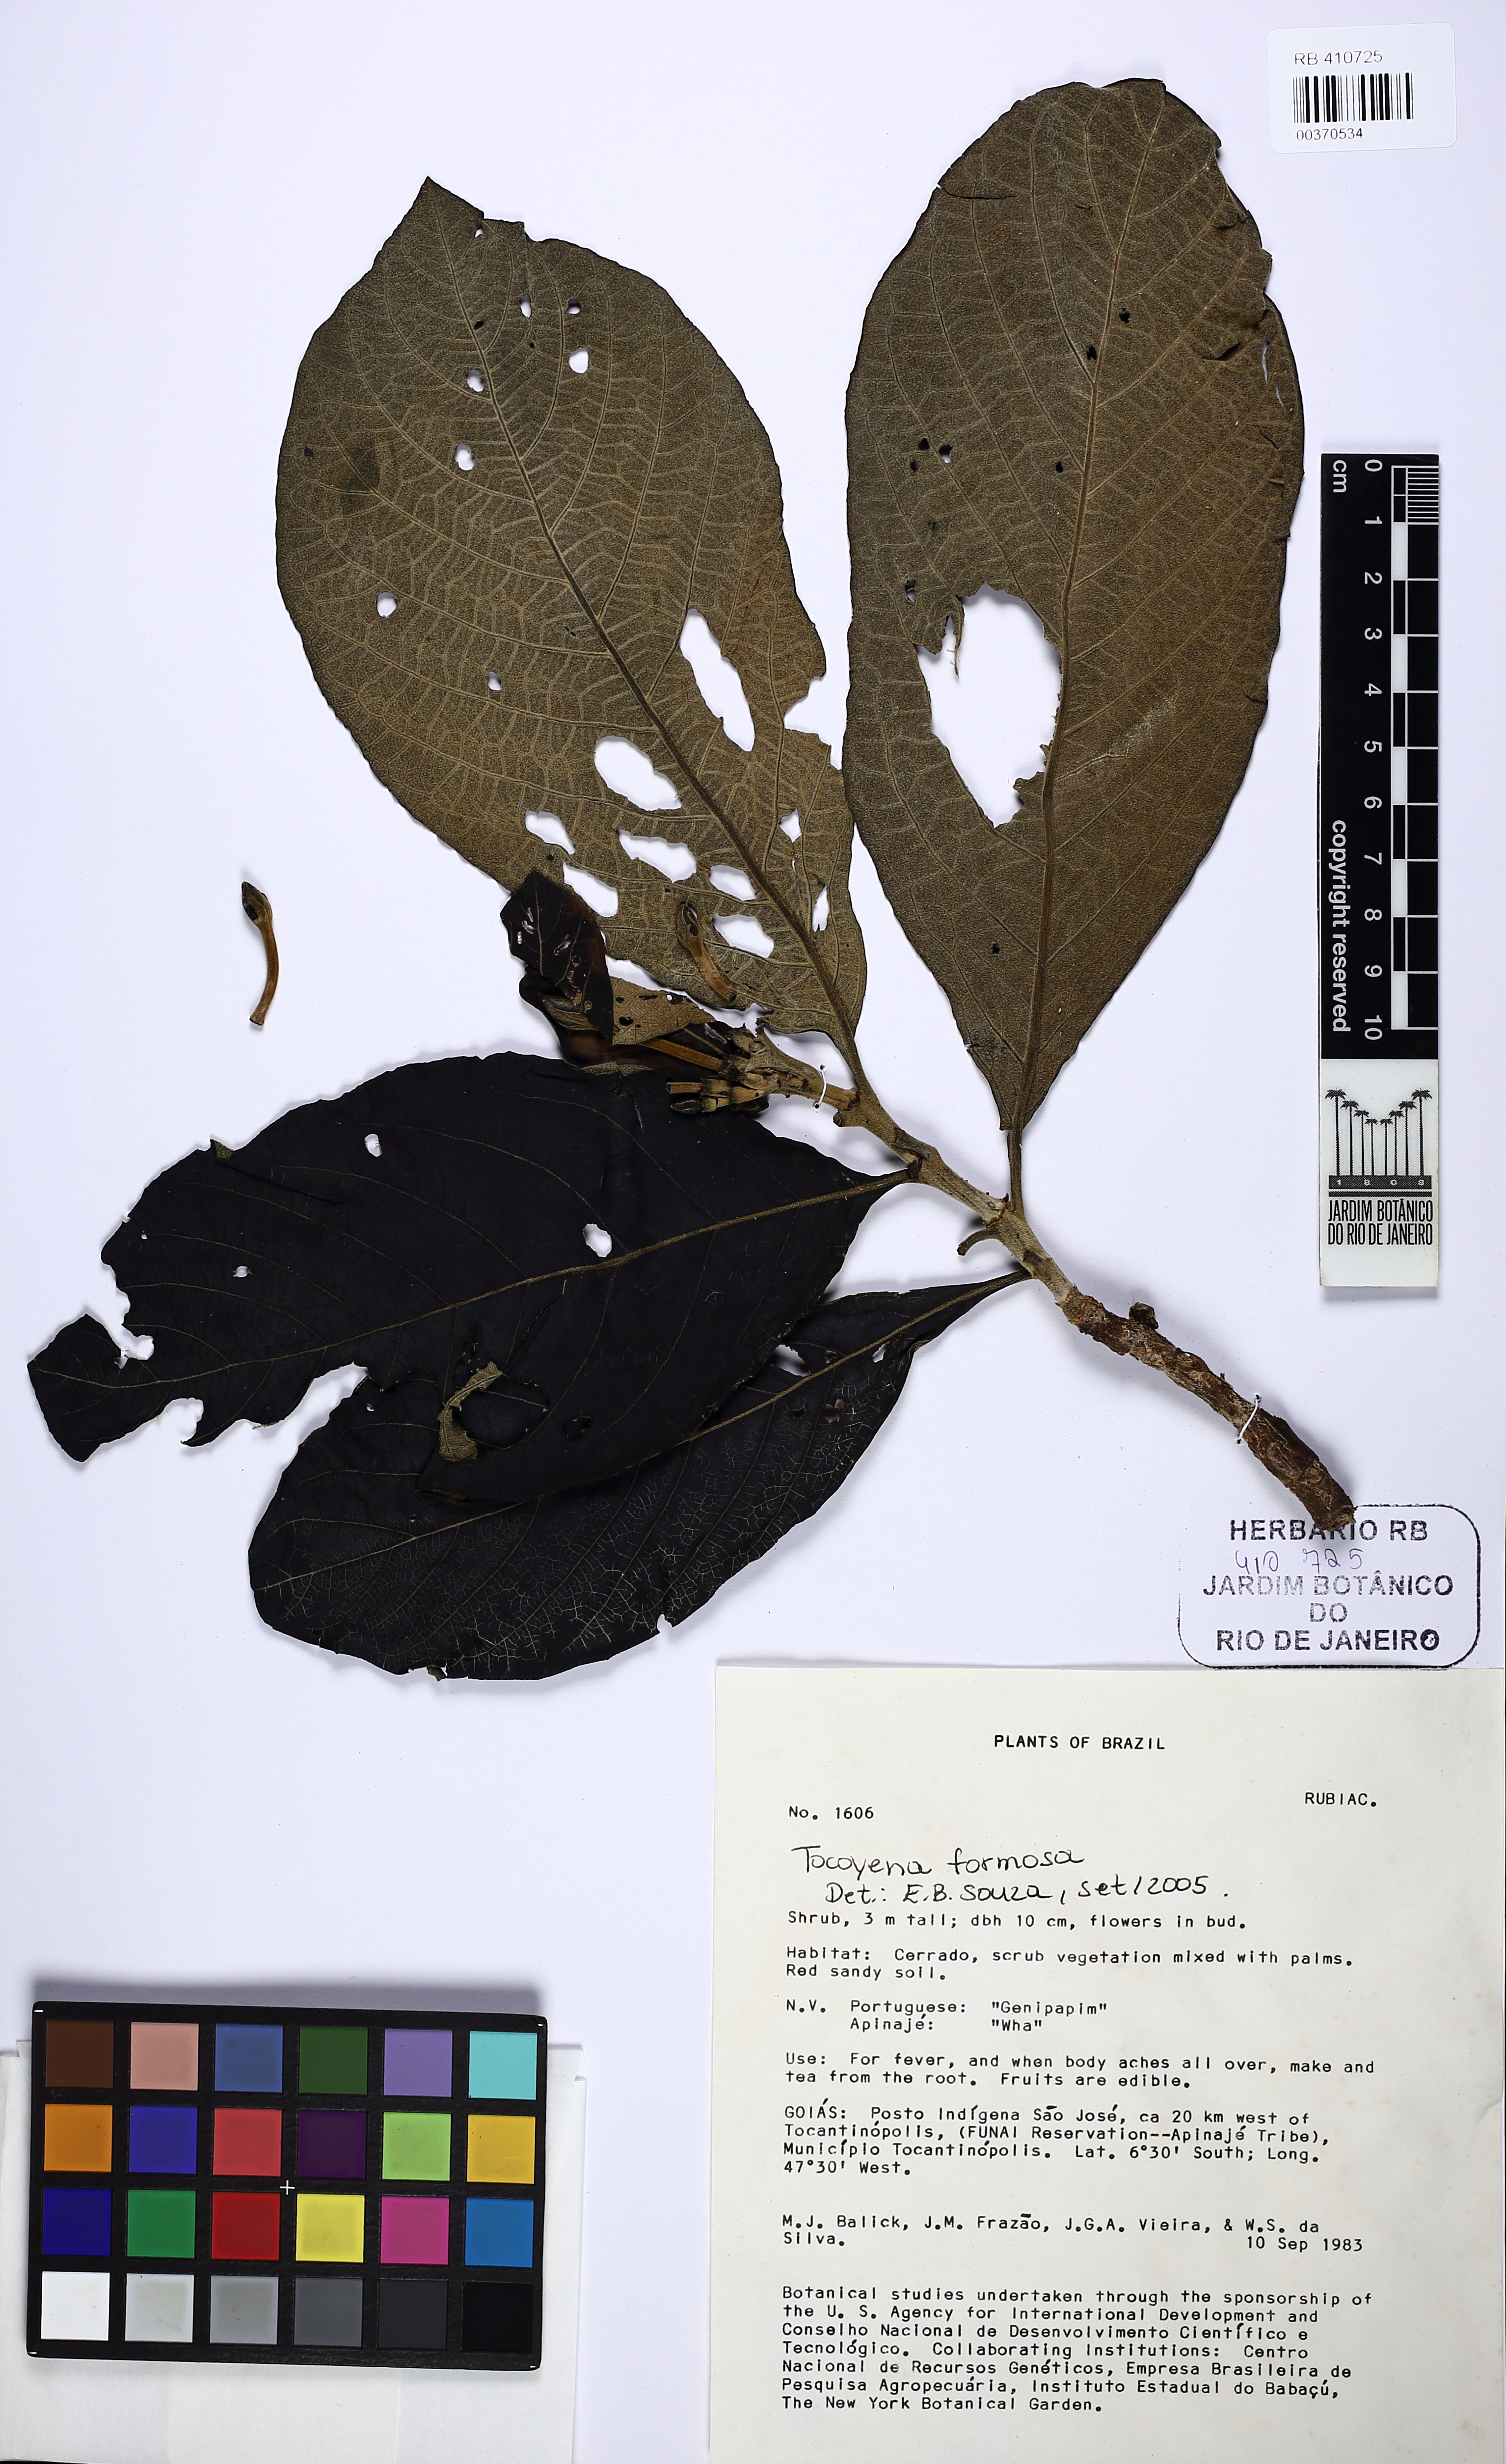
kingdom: Plantae
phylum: Tracheophyta
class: Magnoliopsida
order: Gentianales
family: Rubiaceae
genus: Tocoyena
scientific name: Tocoyena formosa
